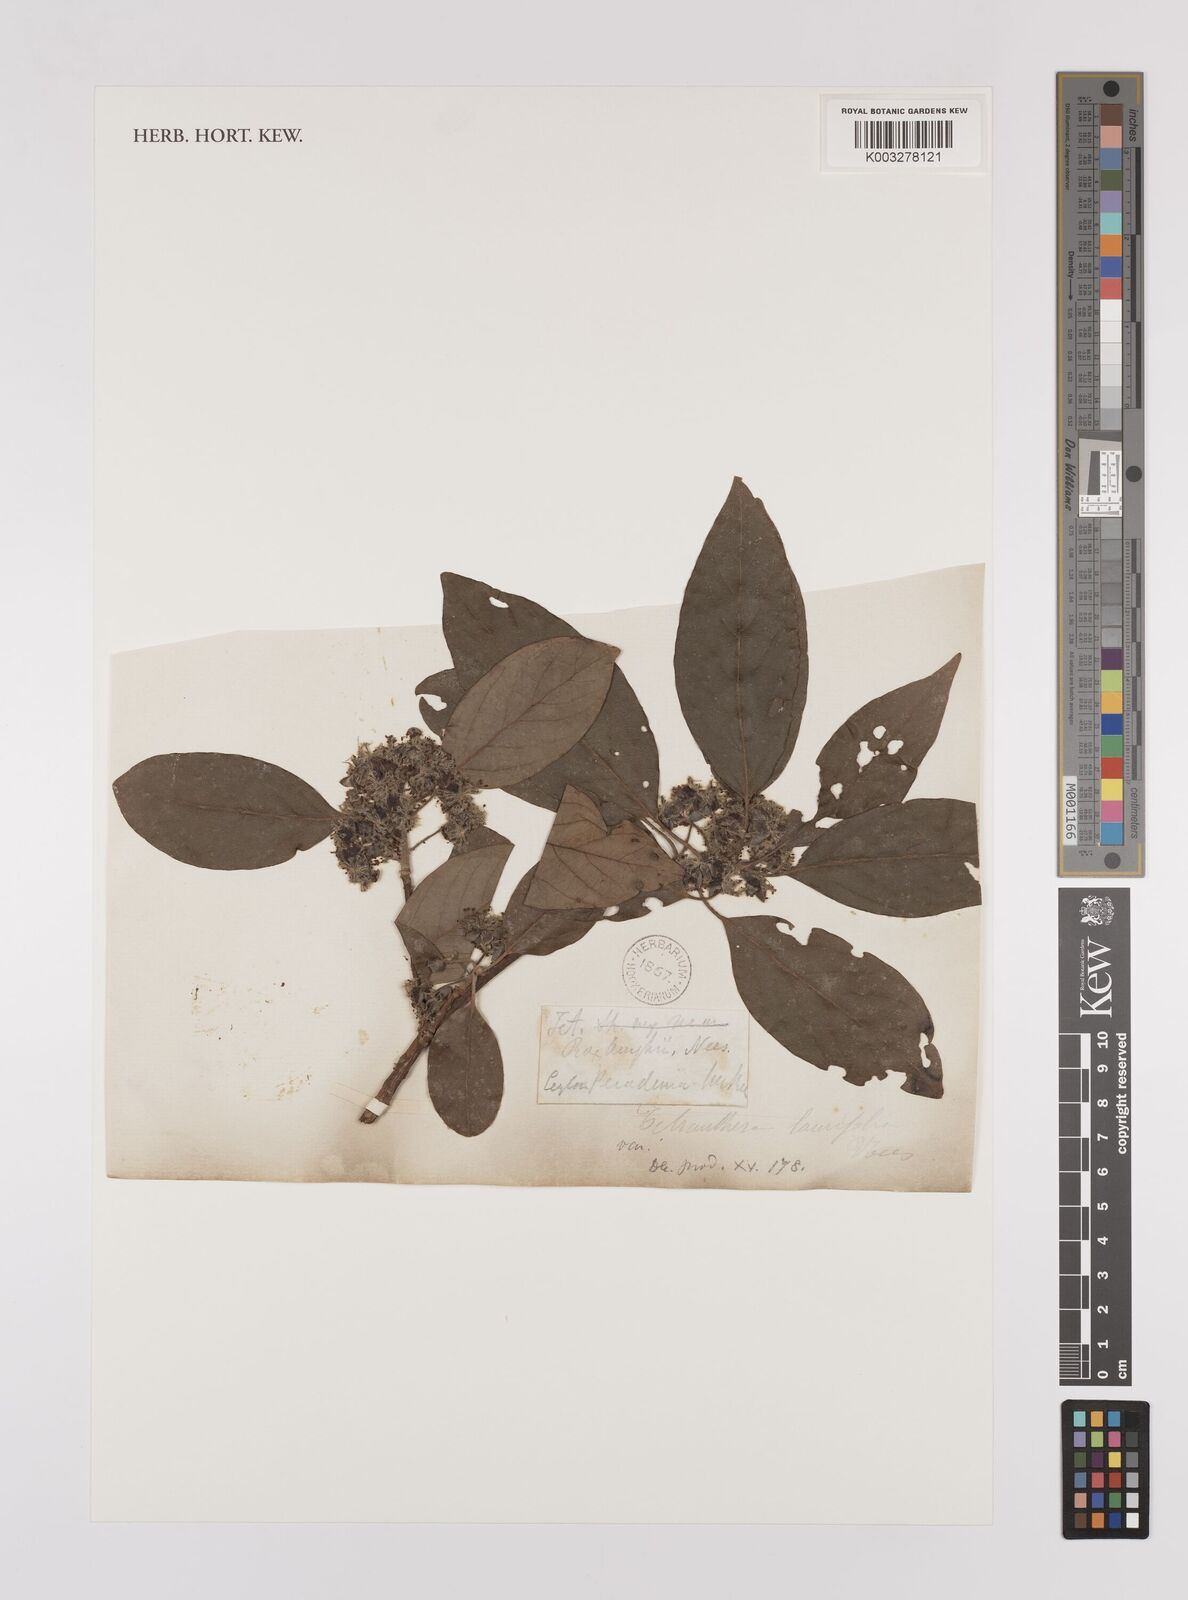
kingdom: Plantae
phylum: Tracheophyta
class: Magnoliopsida
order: Laurales
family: Lauraceae
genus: Litsea
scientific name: Litsea
